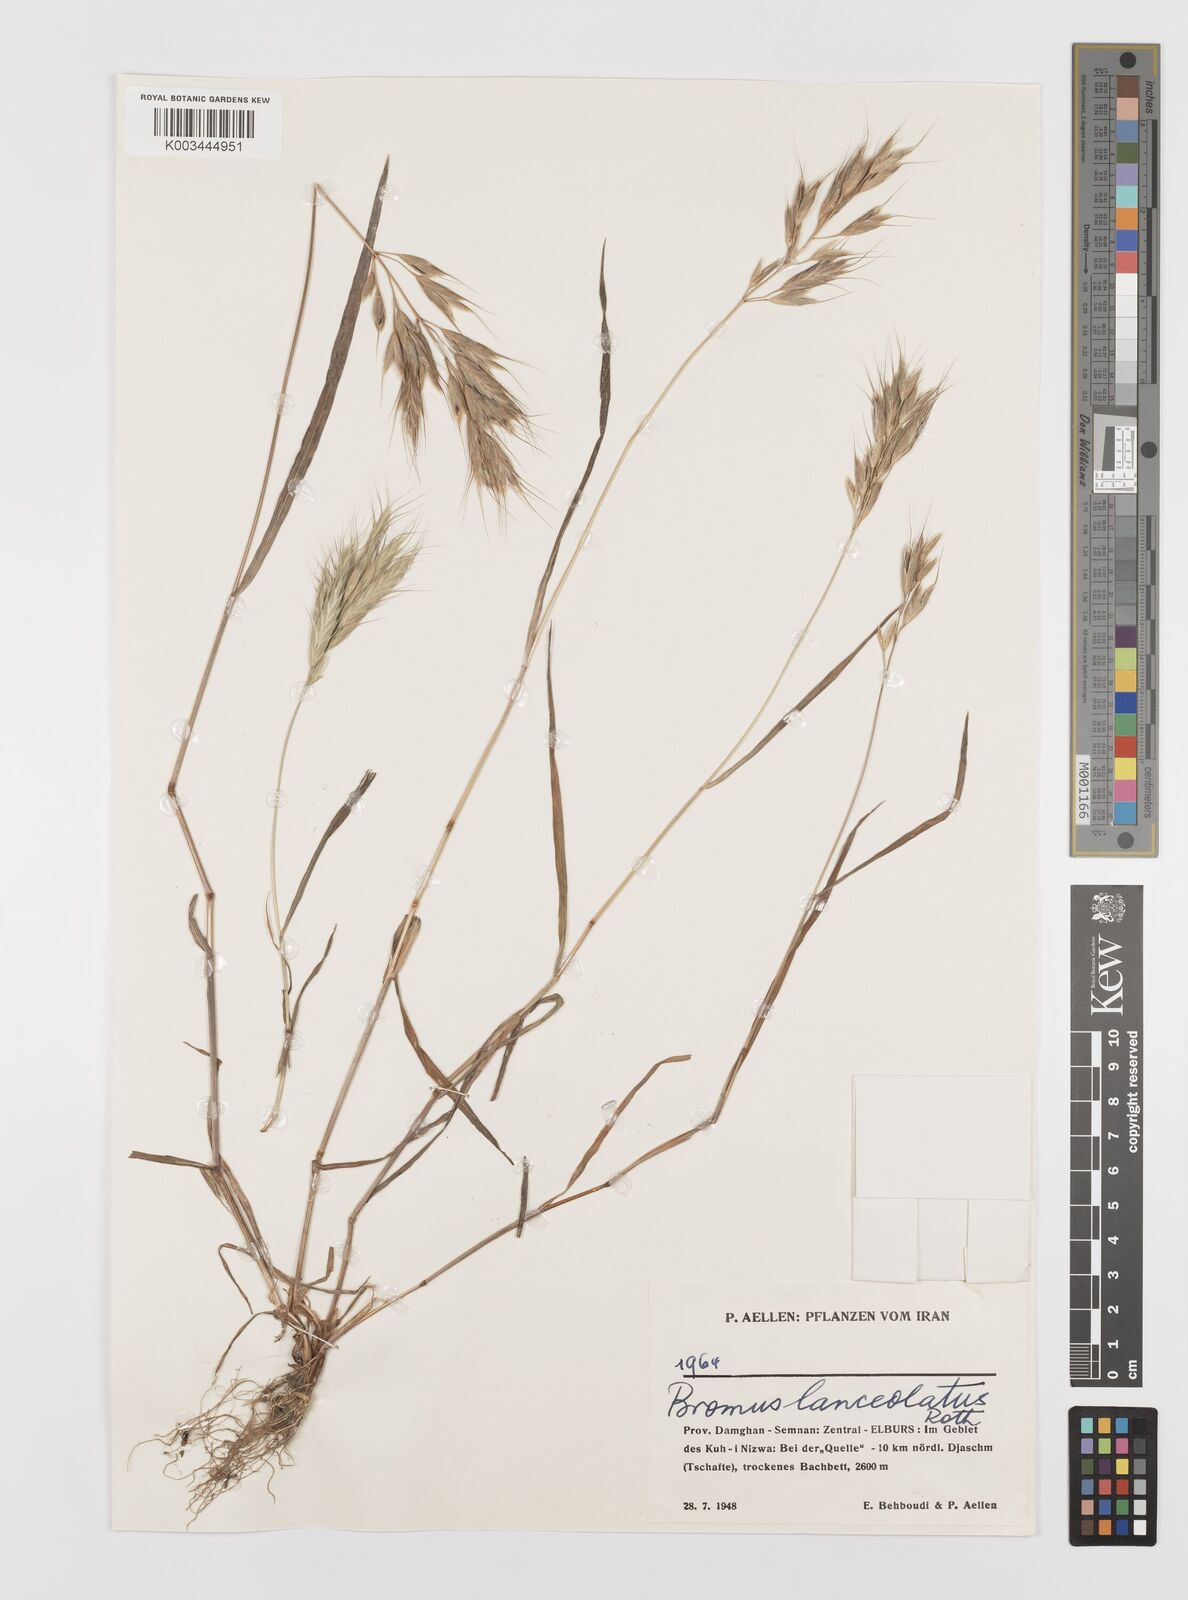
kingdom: Plantae
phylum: Tracheophyta
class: Liliopsida
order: Poales
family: Poaceae
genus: Bromus
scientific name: Bromus lanceolatus
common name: Mediterranean brome
